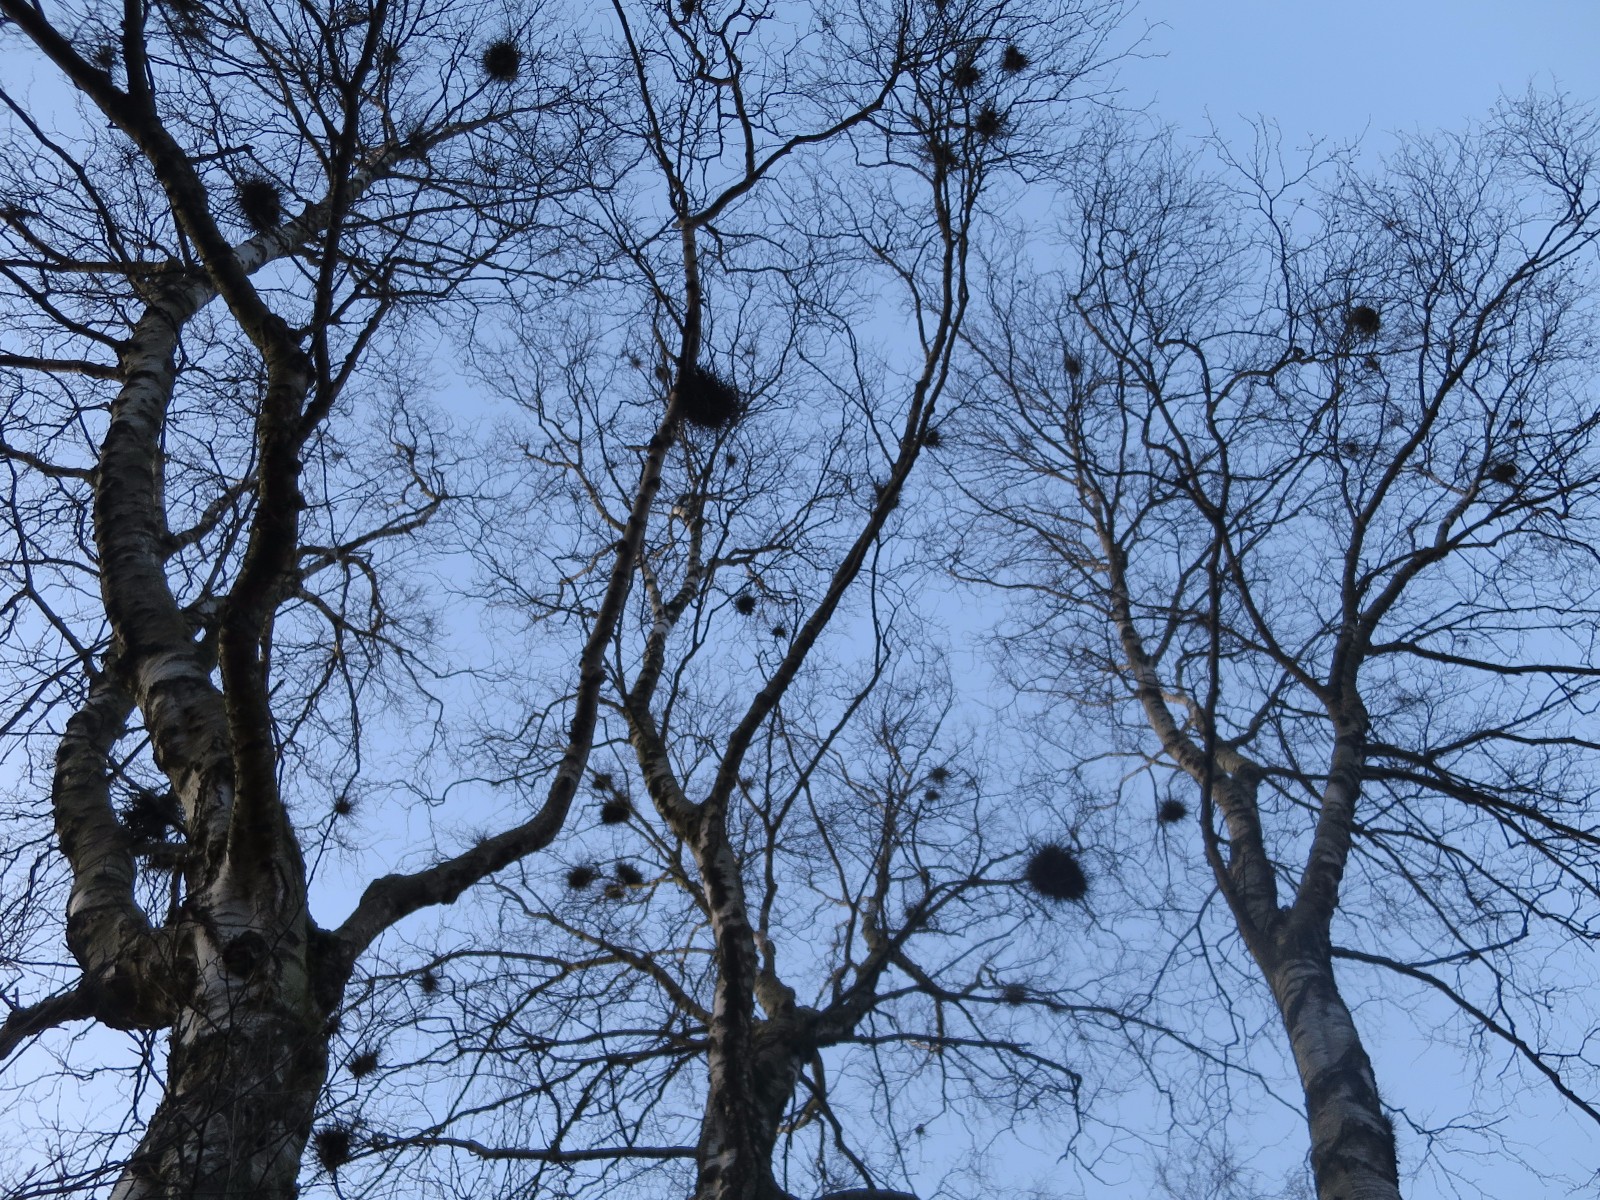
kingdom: Fungi
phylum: Ascomycota
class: Taphrinomycetes
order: Taphrinales
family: Taphrinaceae
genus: Taphrina
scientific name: Taphrina betulina
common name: hekse-sækdug
